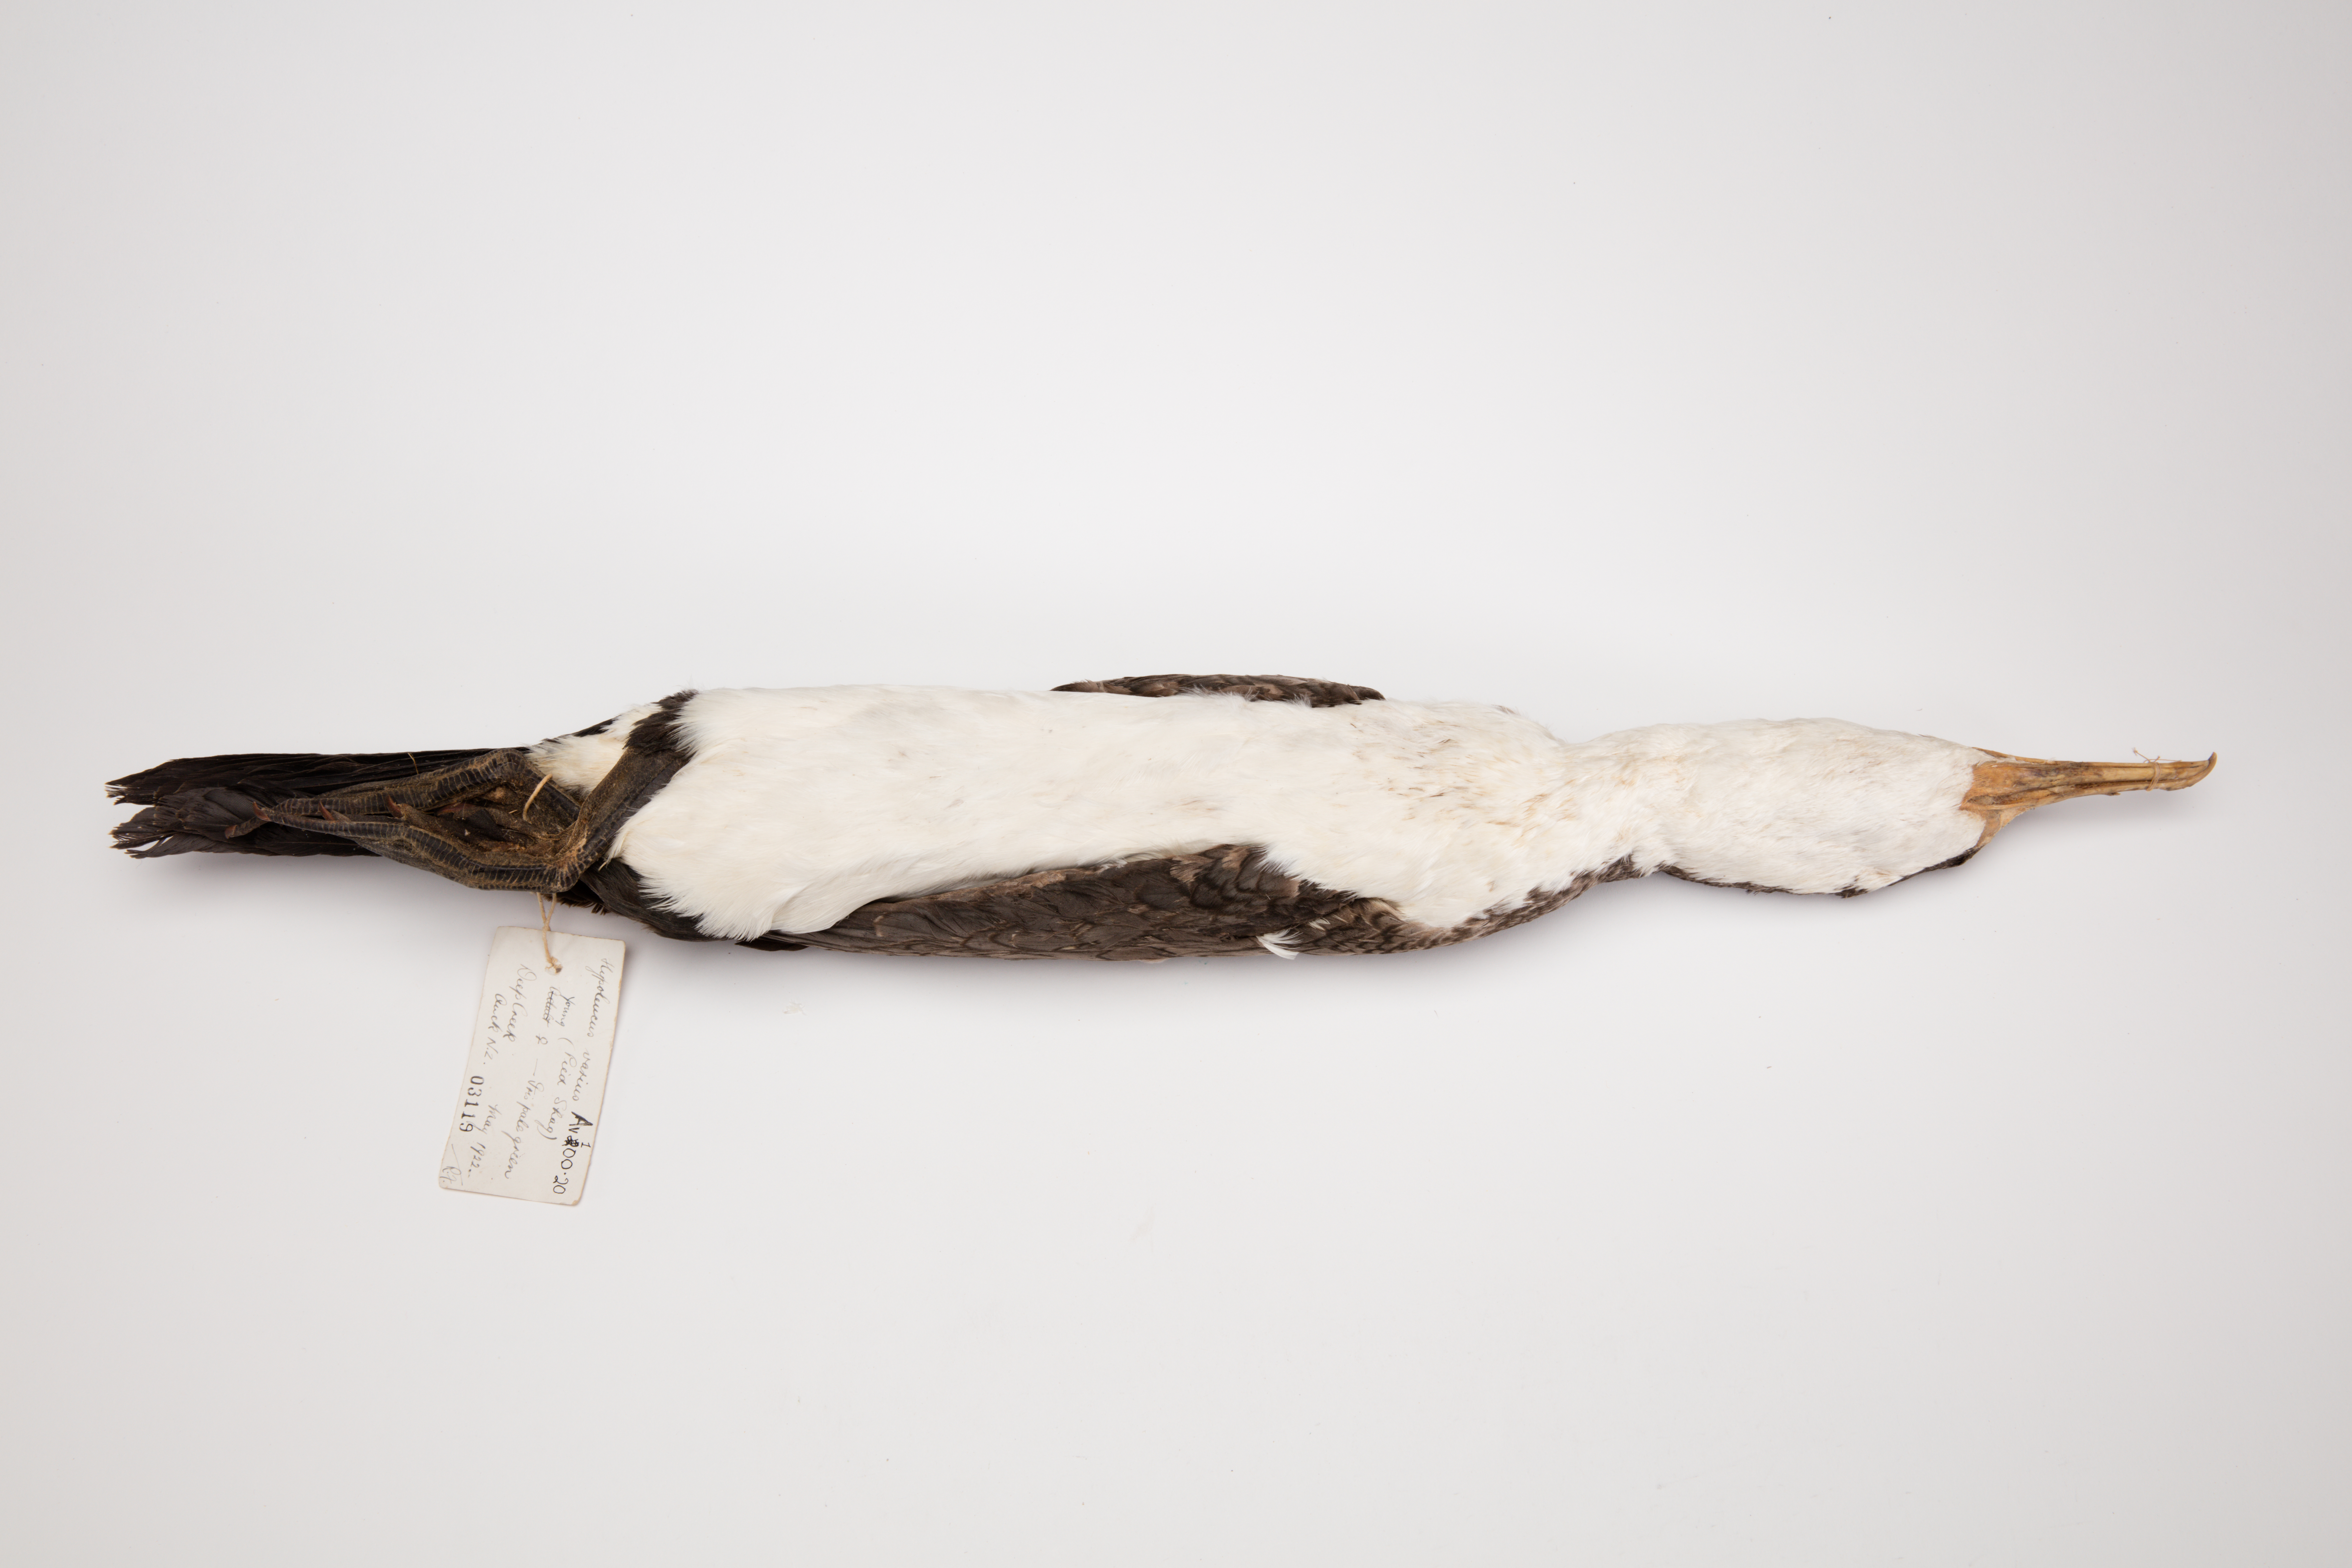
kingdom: Animalia
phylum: Chordata
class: Aves
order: Suliformes
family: Phalacrocoracidae
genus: Phalacrocorax
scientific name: Phalacrocorax varius
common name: Pied cormorant
